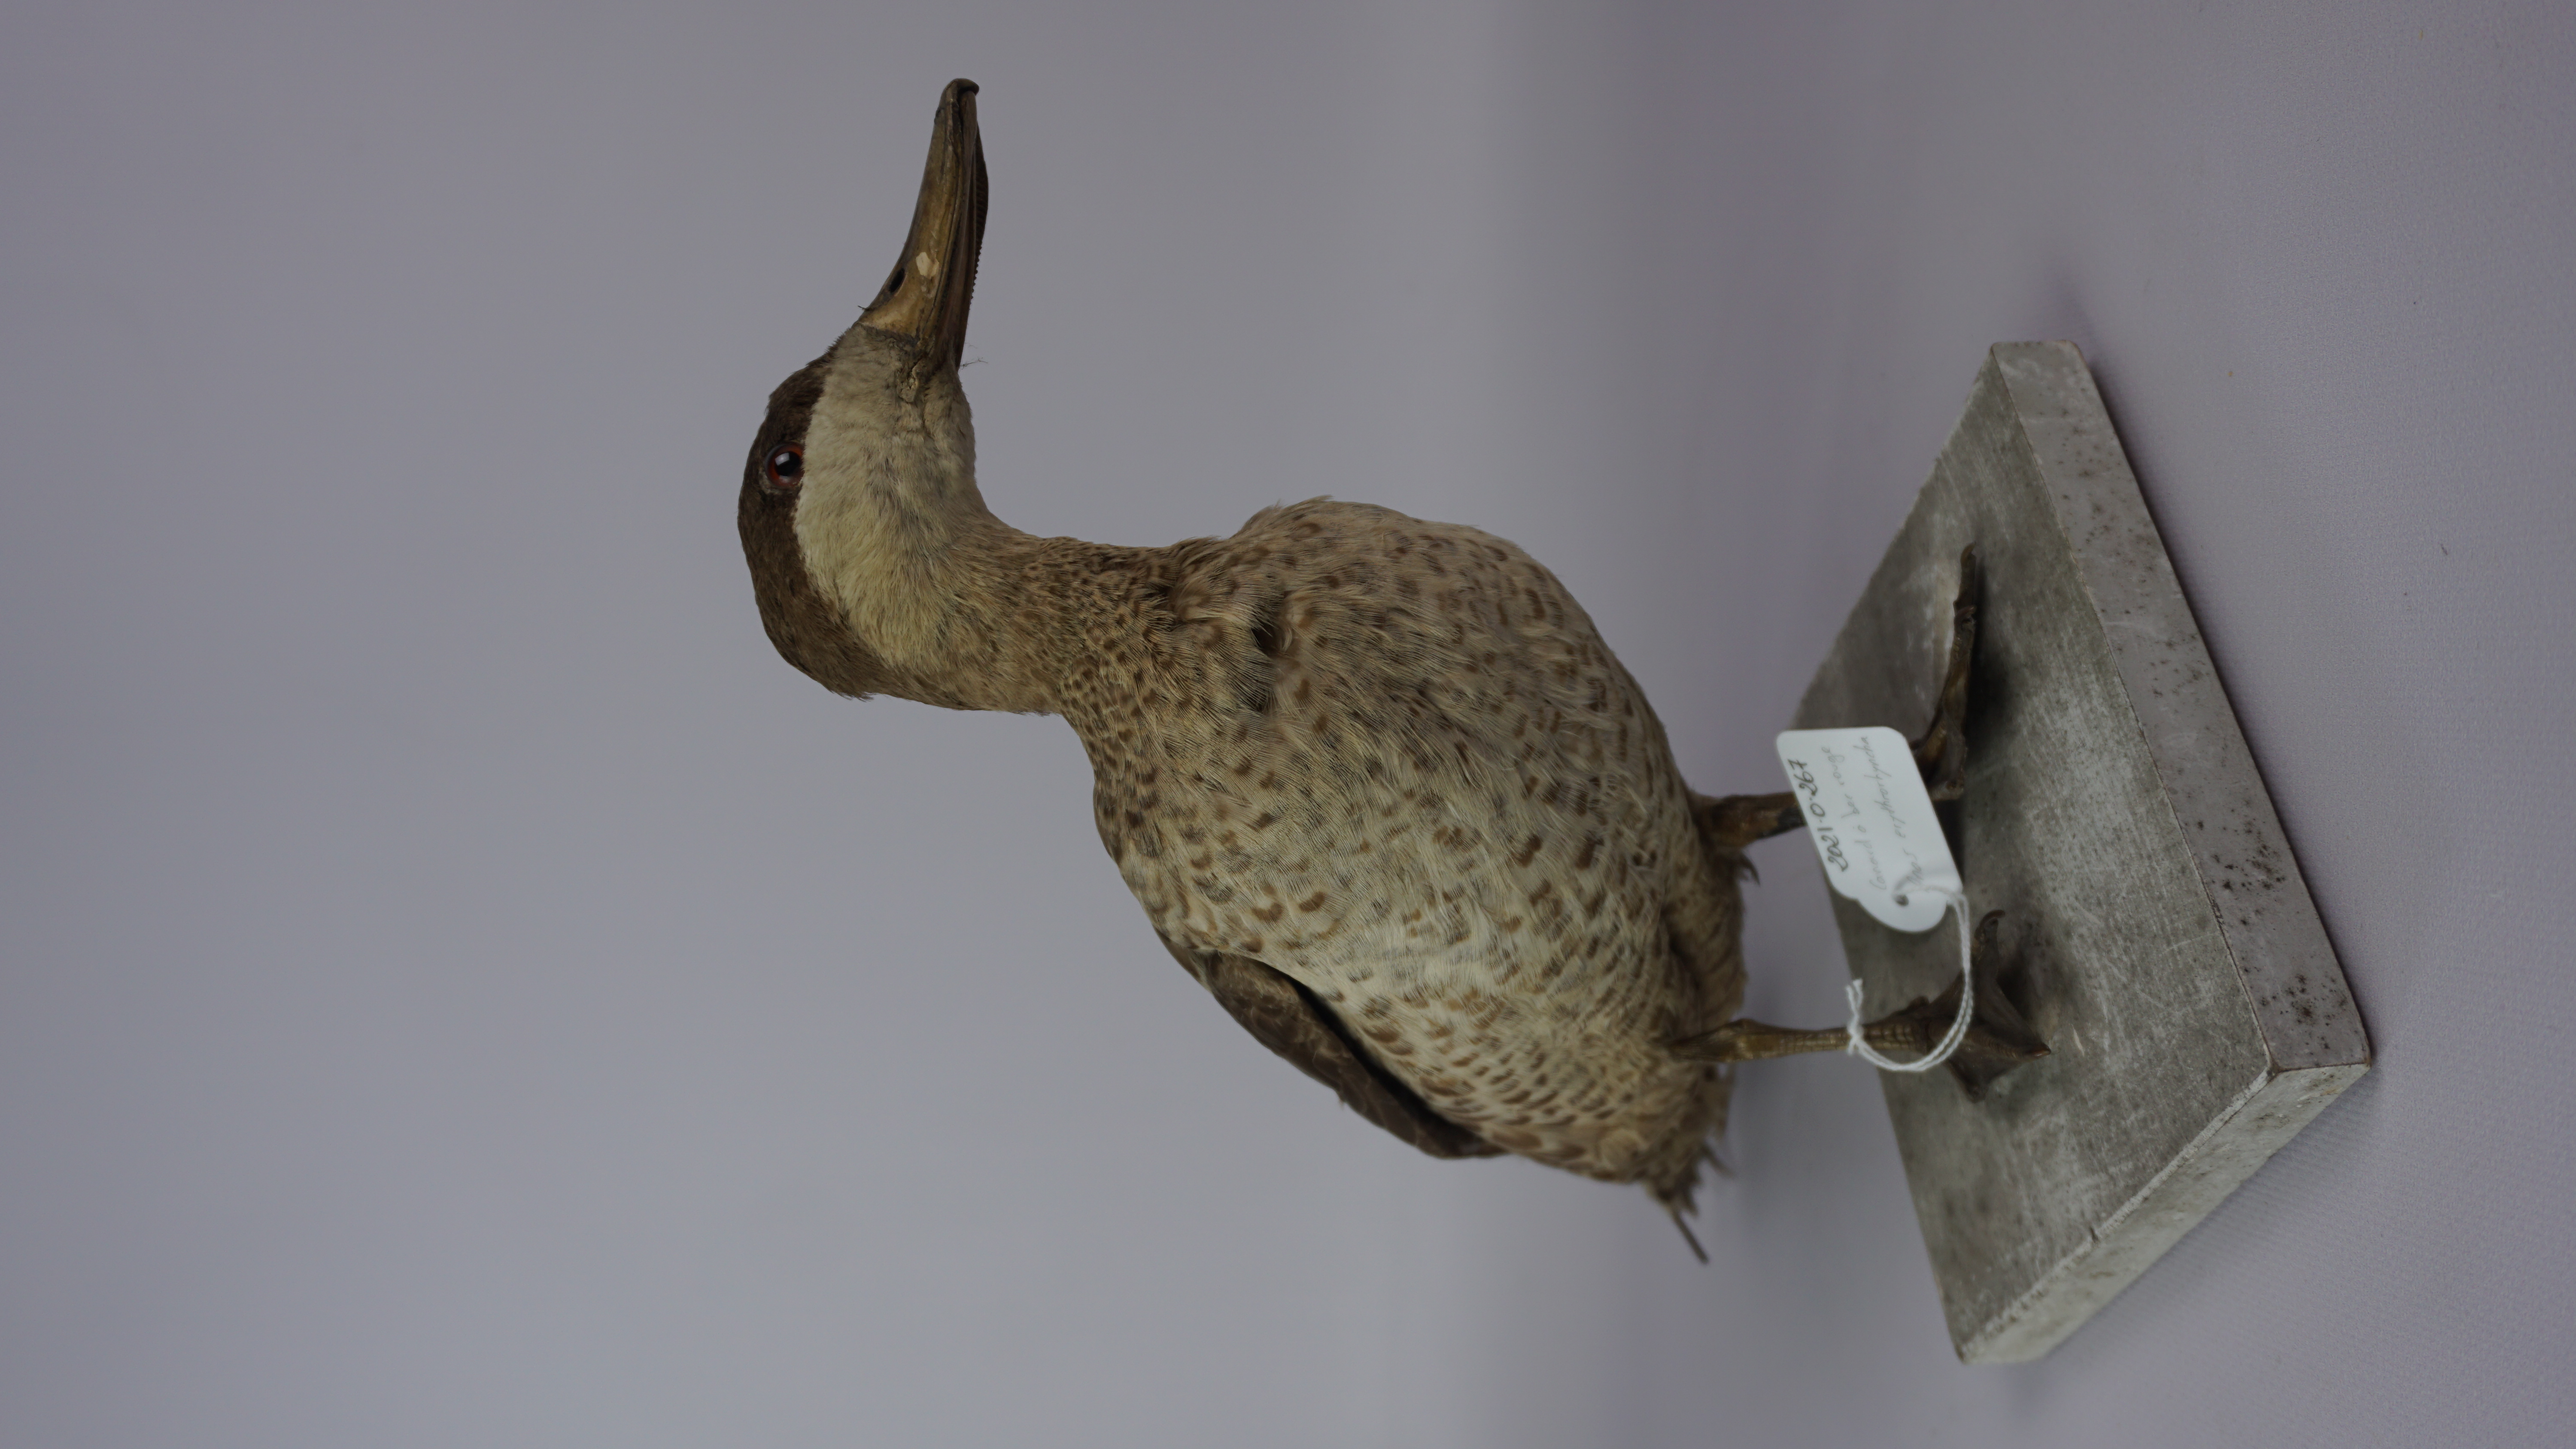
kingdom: Animalia
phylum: Chordata
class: Aves
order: Anseriformes
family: Anatidae
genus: Anas
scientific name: Anas erythrorhyncha
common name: Red-billed teal
